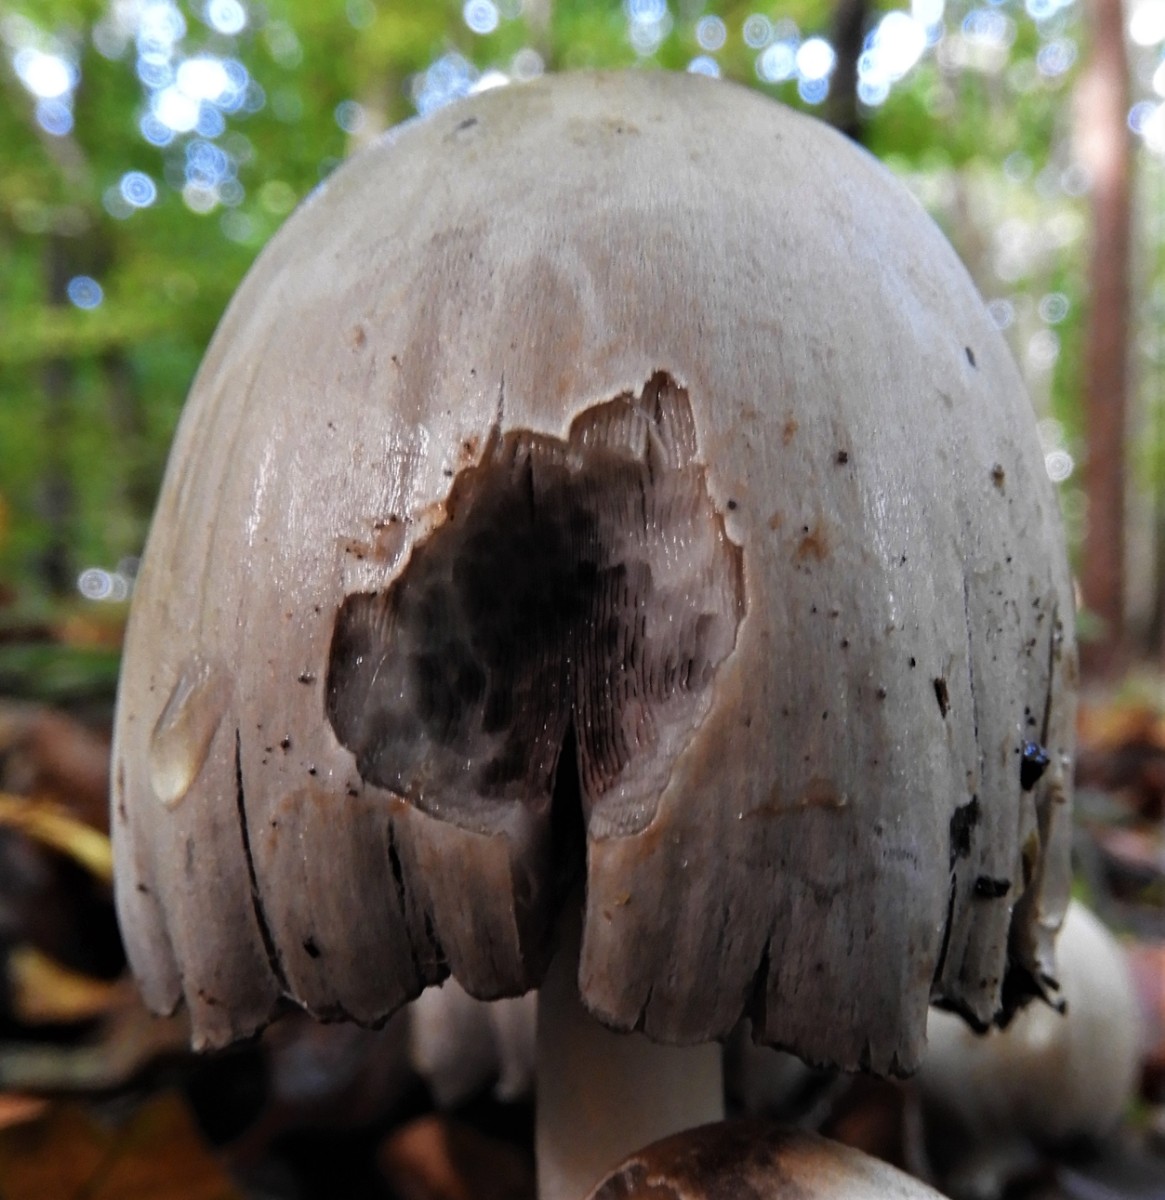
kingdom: Fungi
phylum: Basidiomycota
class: Agaricomycetes
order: Agaricales
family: Psathyrellaceae
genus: Coprinopsis
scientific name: Coprinopsis atramentaria
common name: almindelig blækhat
